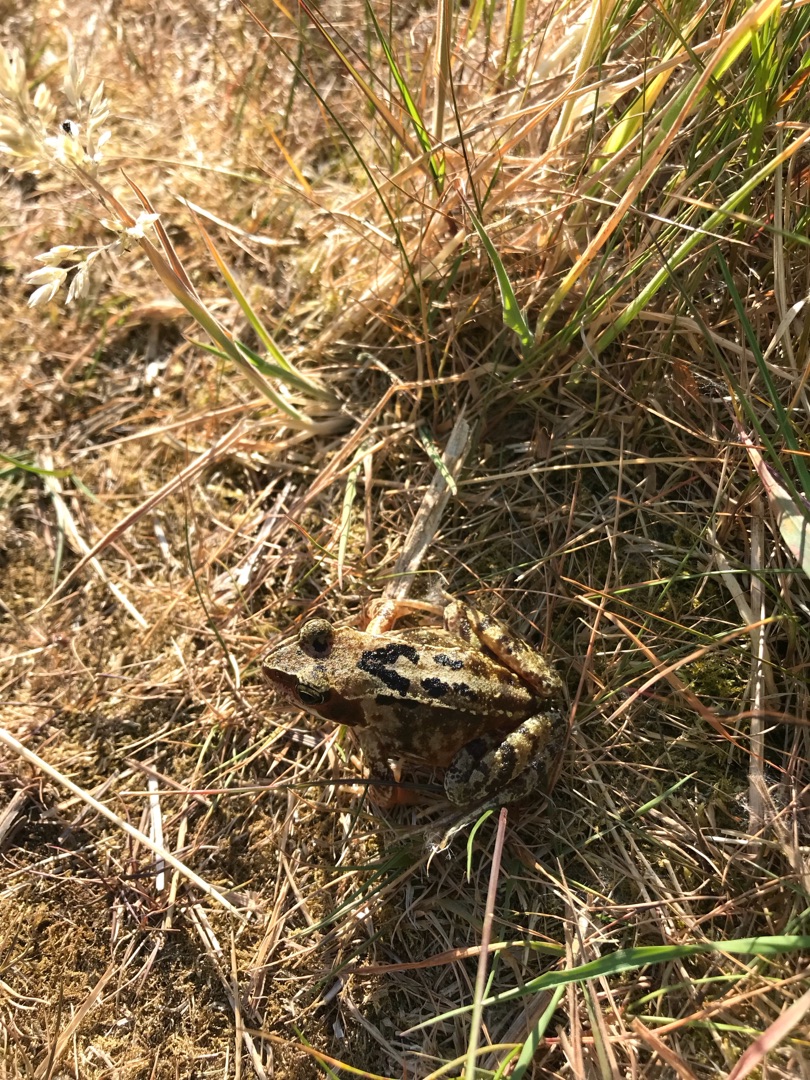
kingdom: Animalia
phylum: Chordata
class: Amphibia
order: Anura
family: Ranidae
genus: Rana
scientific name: Rana temporaria
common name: Butsnudet frø
